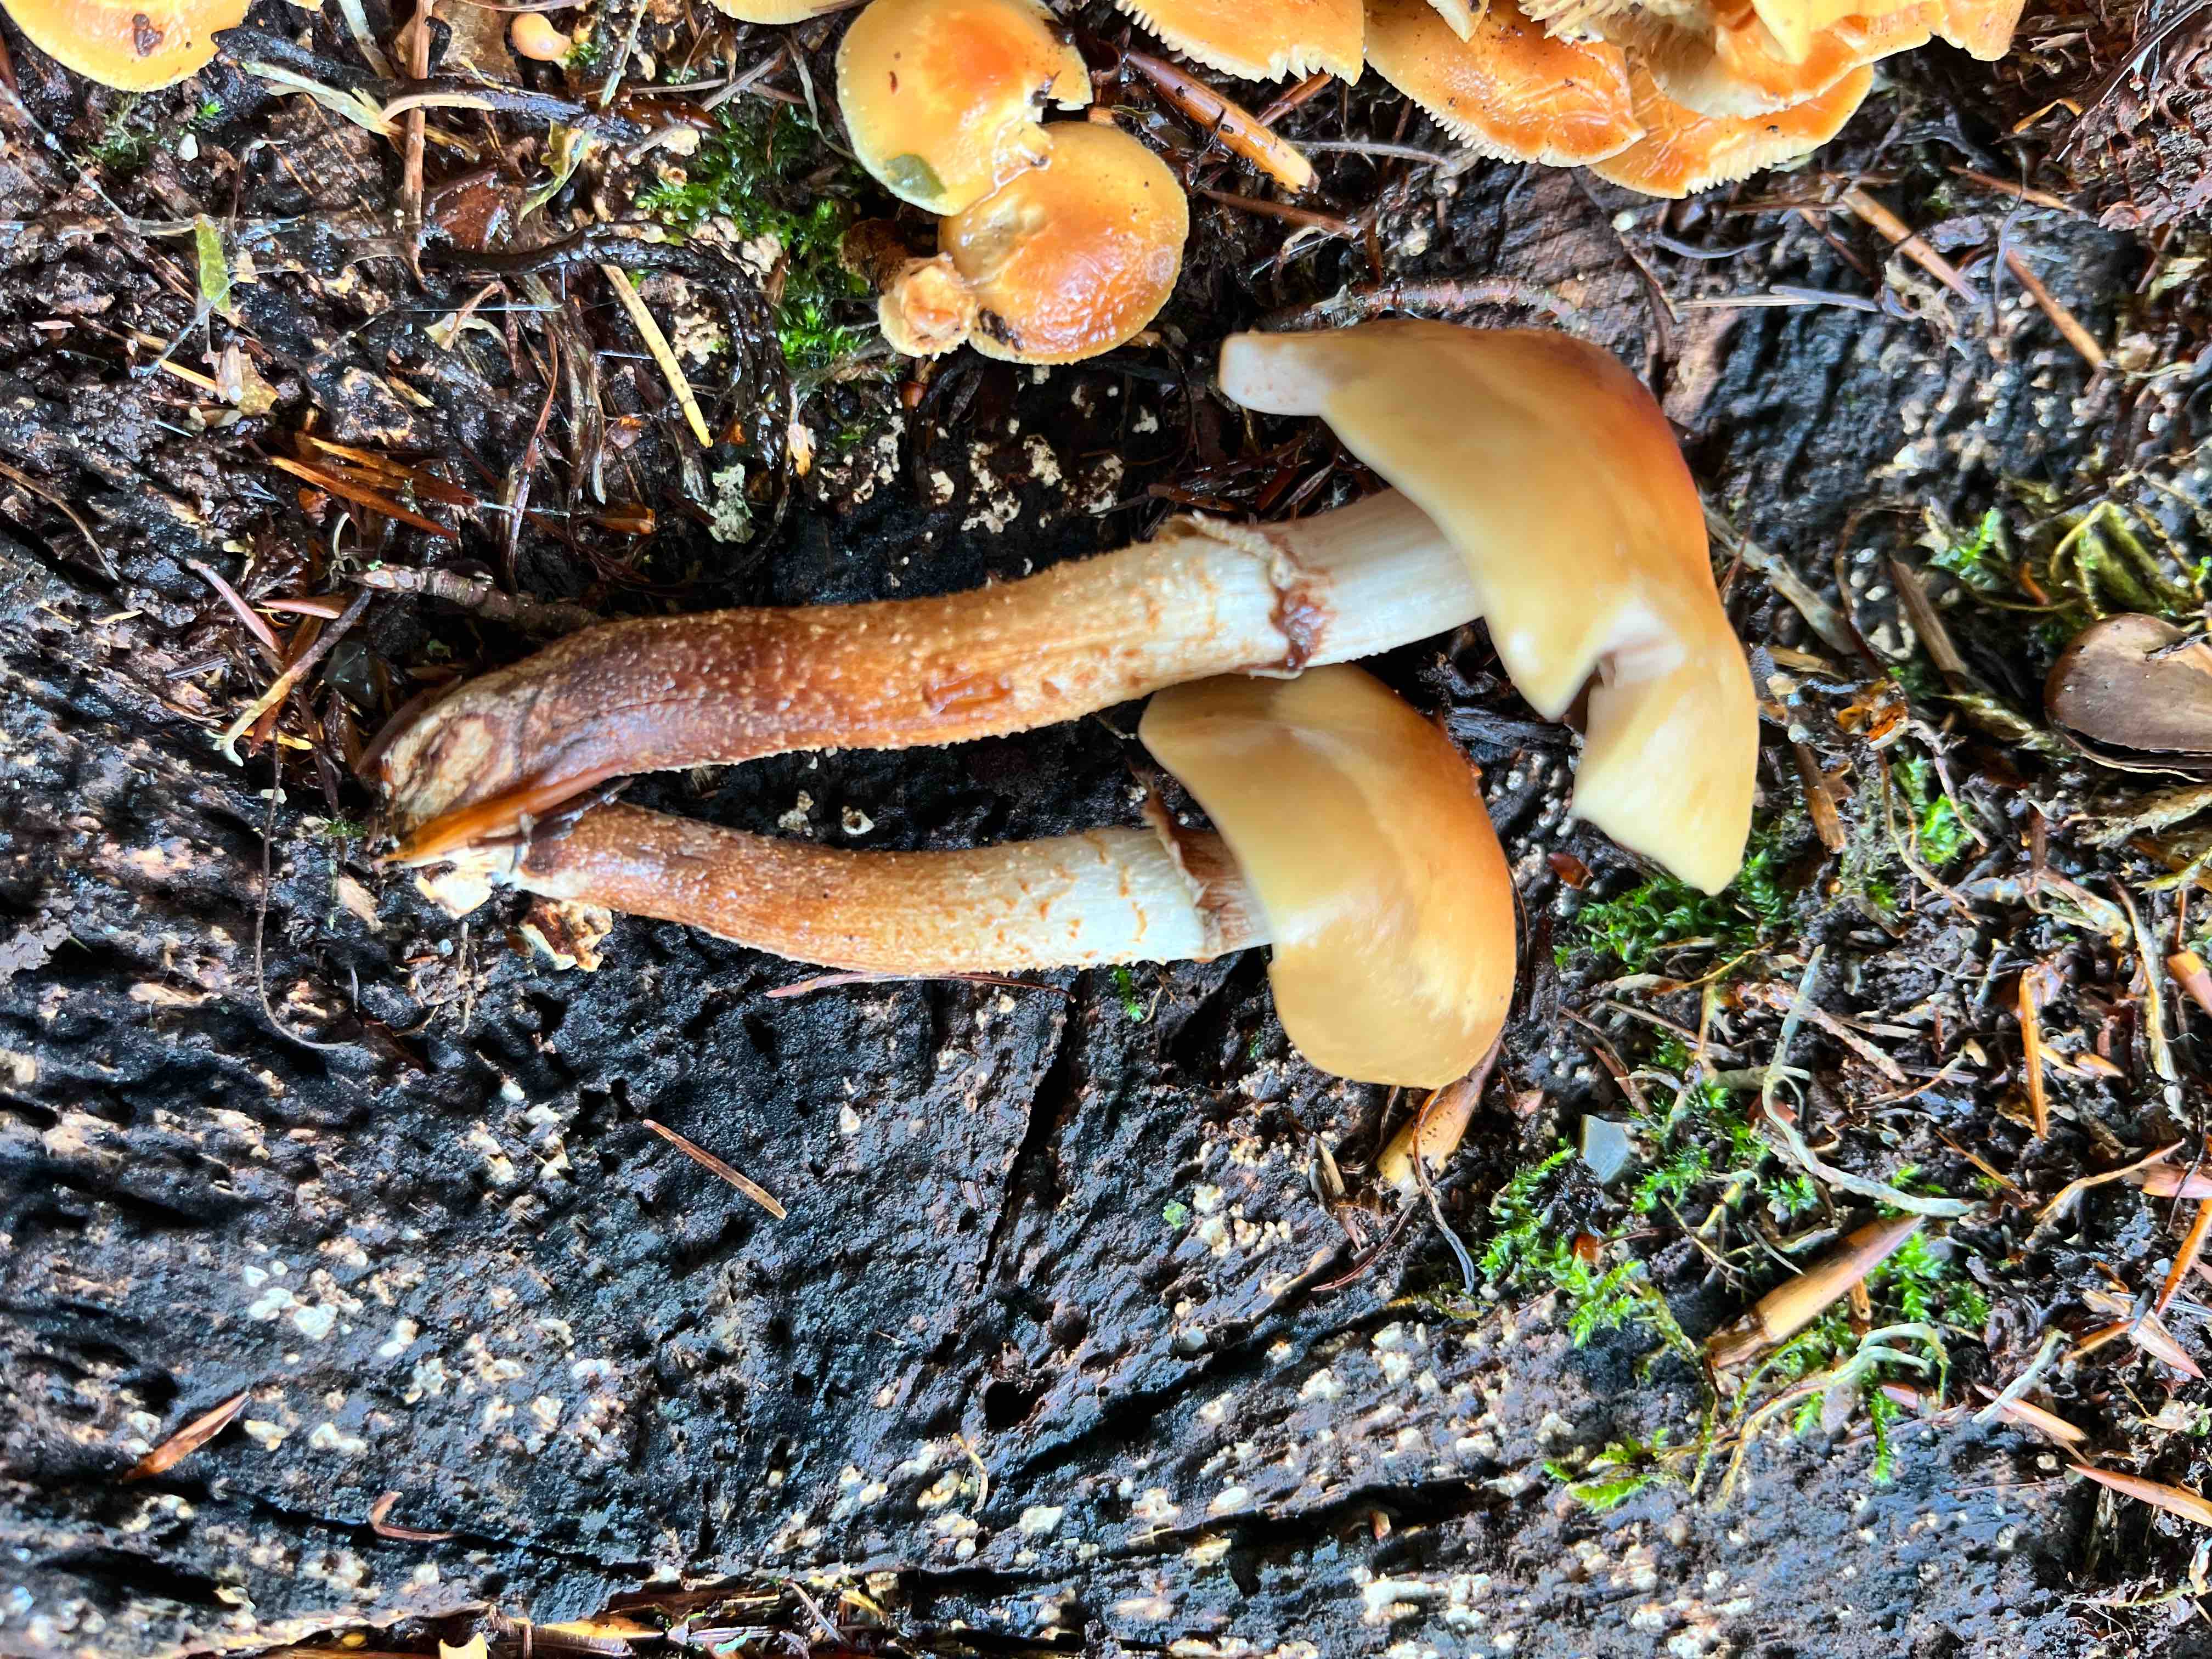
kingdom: Fungi
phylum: Basidiomycota
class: Agaricomycetes
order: Agaricales
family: Strophariaceae
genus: Kuehneromyces
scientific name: Kuehneromyces mutabilis
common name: foranderlig skælhat
